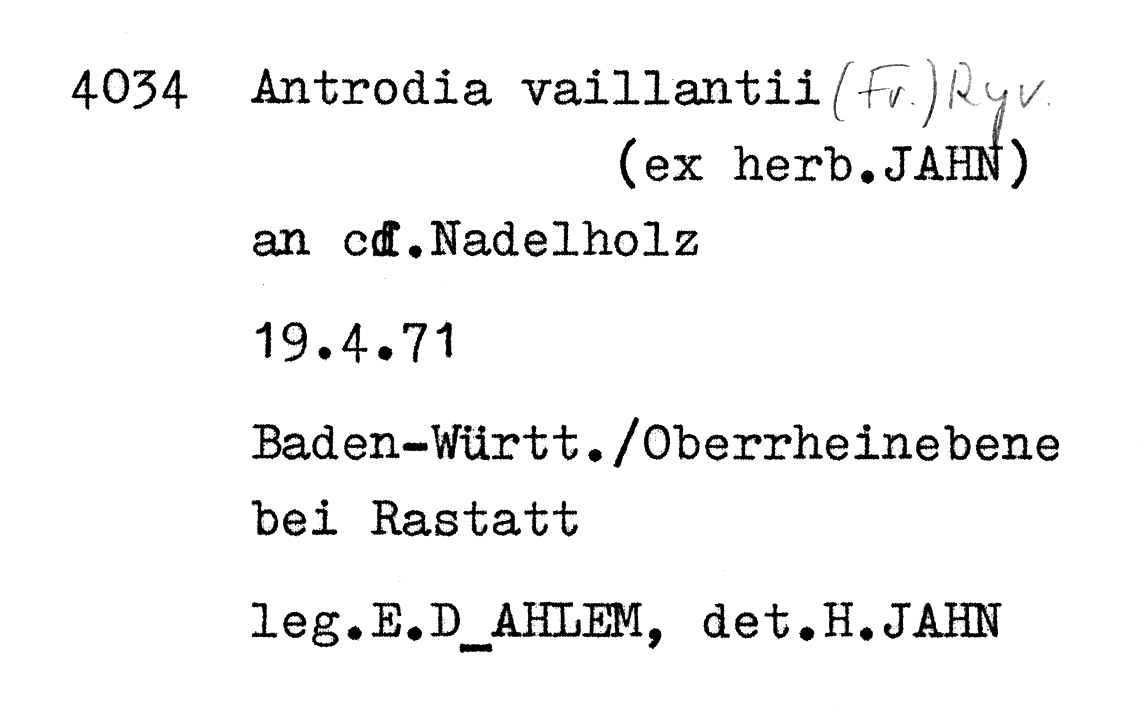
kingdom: Fungi
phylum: Basidiomycota
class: Agaricomycetes
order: Polyporales
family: Fibroporiaceae
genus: Fibroporia
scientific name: Fibroporia vaillantii
